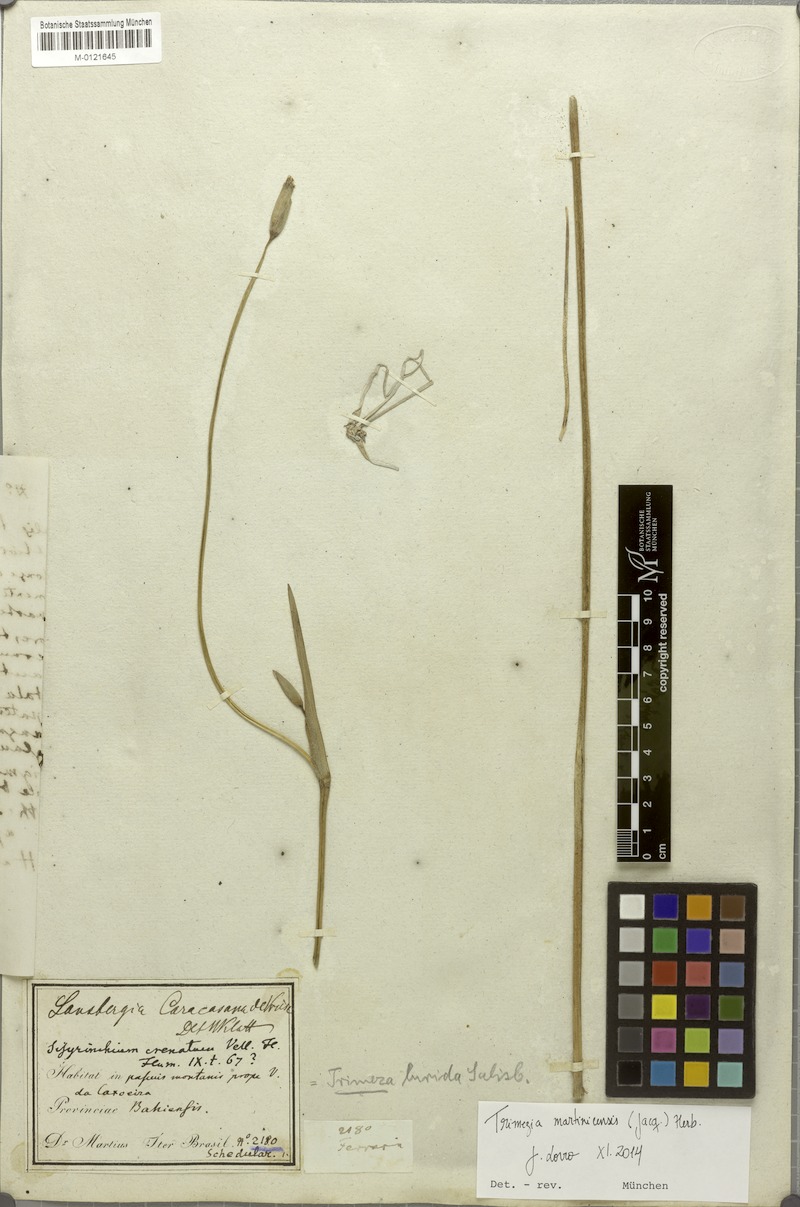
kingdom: Plantae
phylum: Tracheophyta
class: Liliopsida
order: Asparagales
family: Iridaceae
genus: Trimezia
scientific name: Trimezia martinicensis
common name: Martinique trimezia
